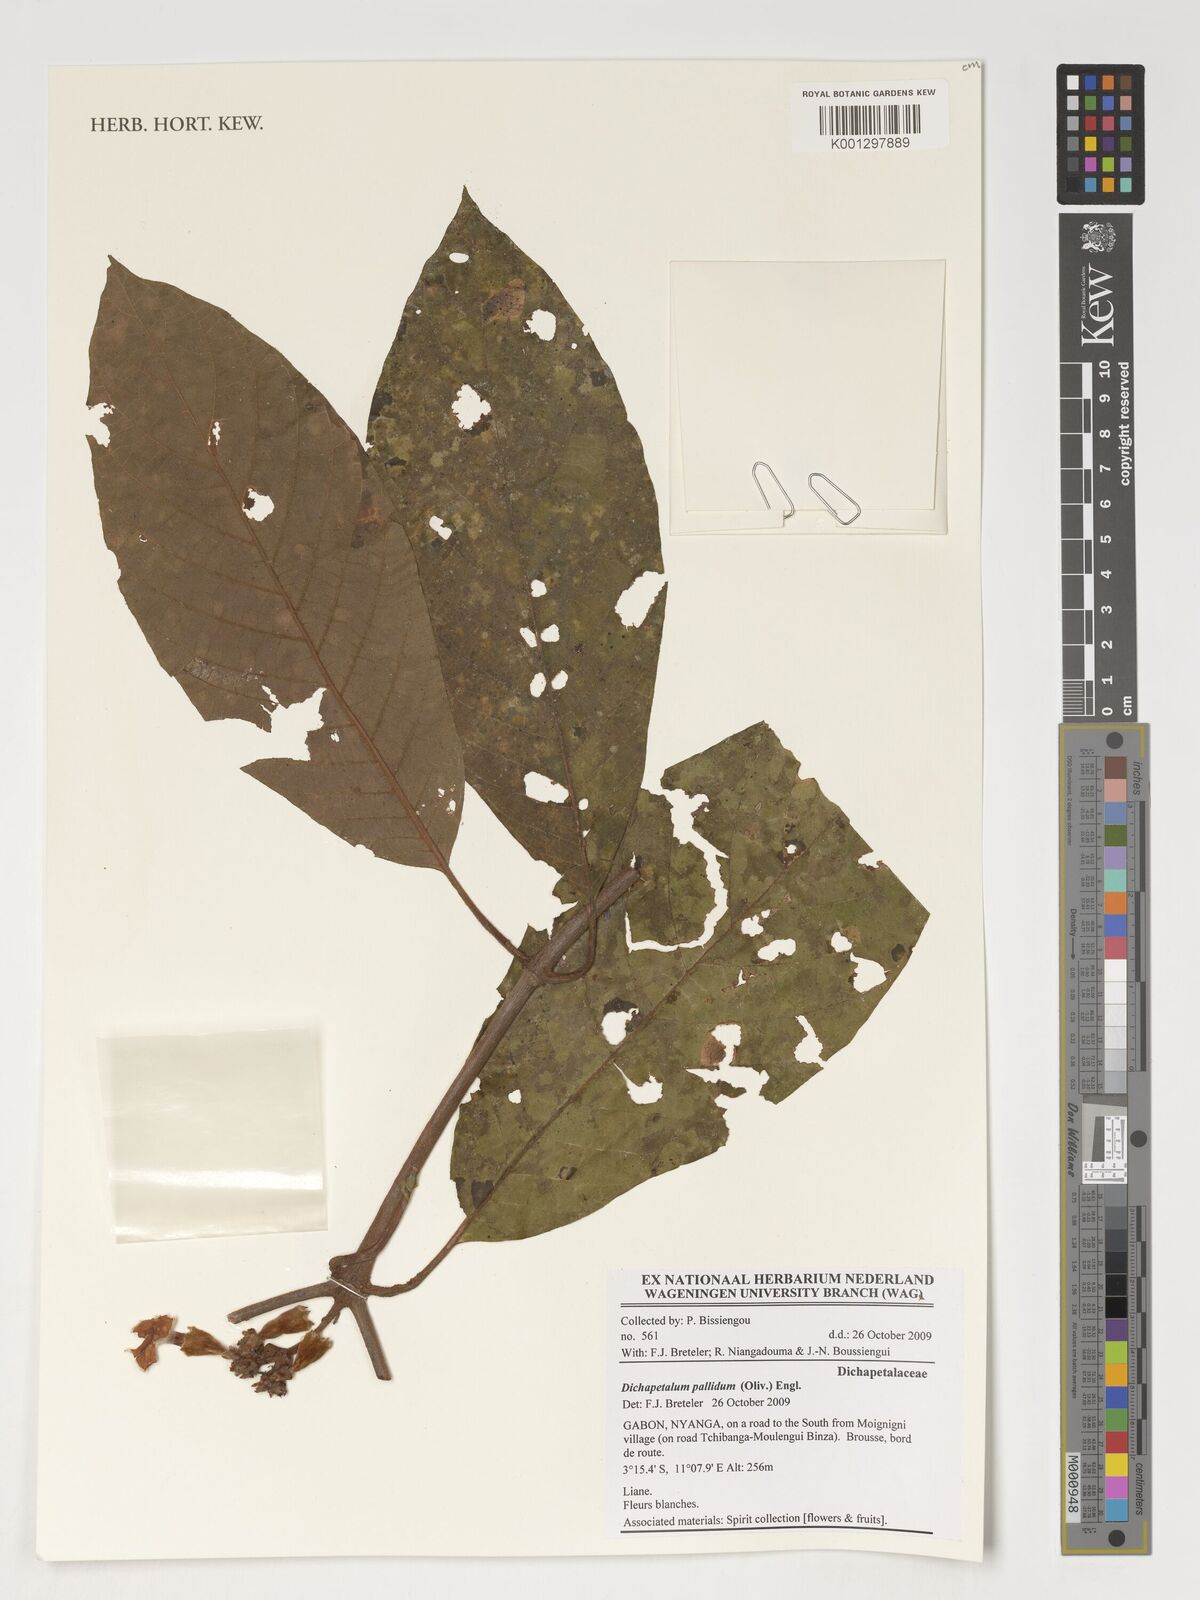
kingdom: Plantae
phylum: Tracheophyta
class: Magnoliopsida
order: Malpighiales
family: Dichapetalaceae
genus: Dichapetalum
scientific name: Dichapetalum pallidum
